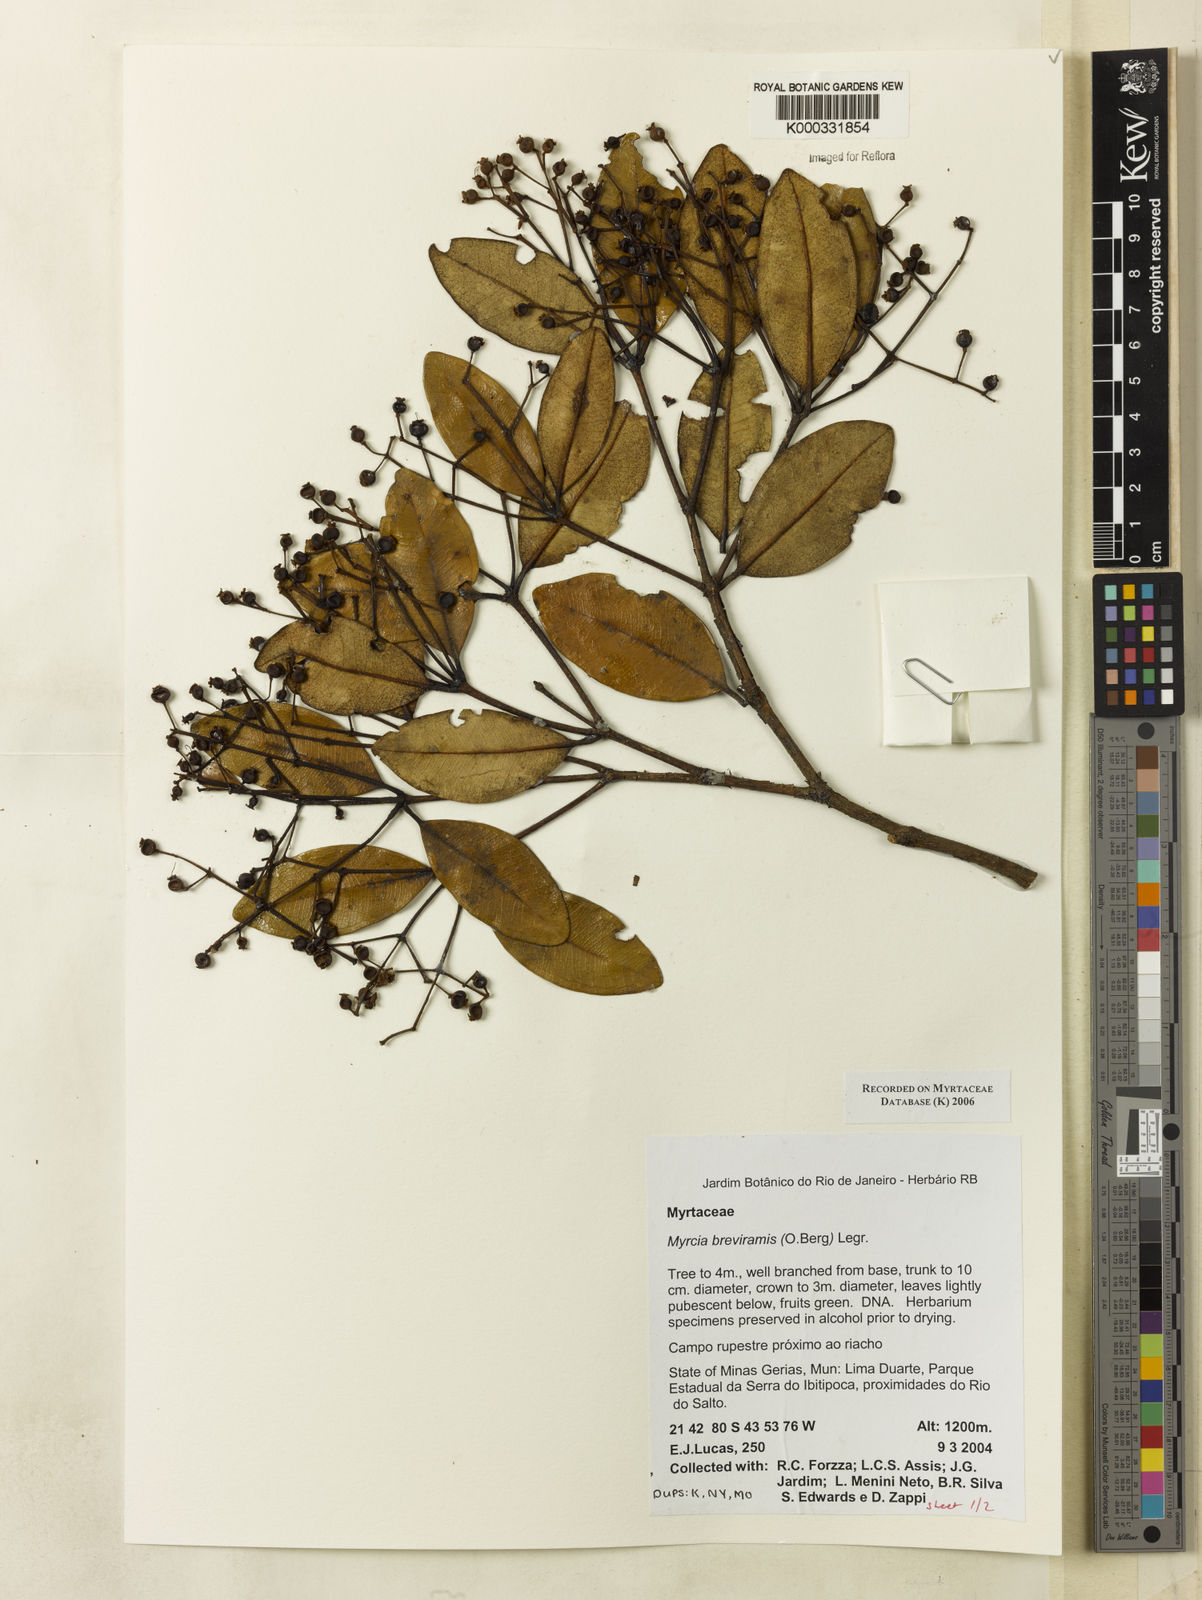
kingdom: Plantae
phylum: Tracheophyta
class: Magnoliopsida
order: Myrtales
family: Myrtaceae
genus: Myrcia
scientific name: Myrcia pulchra
